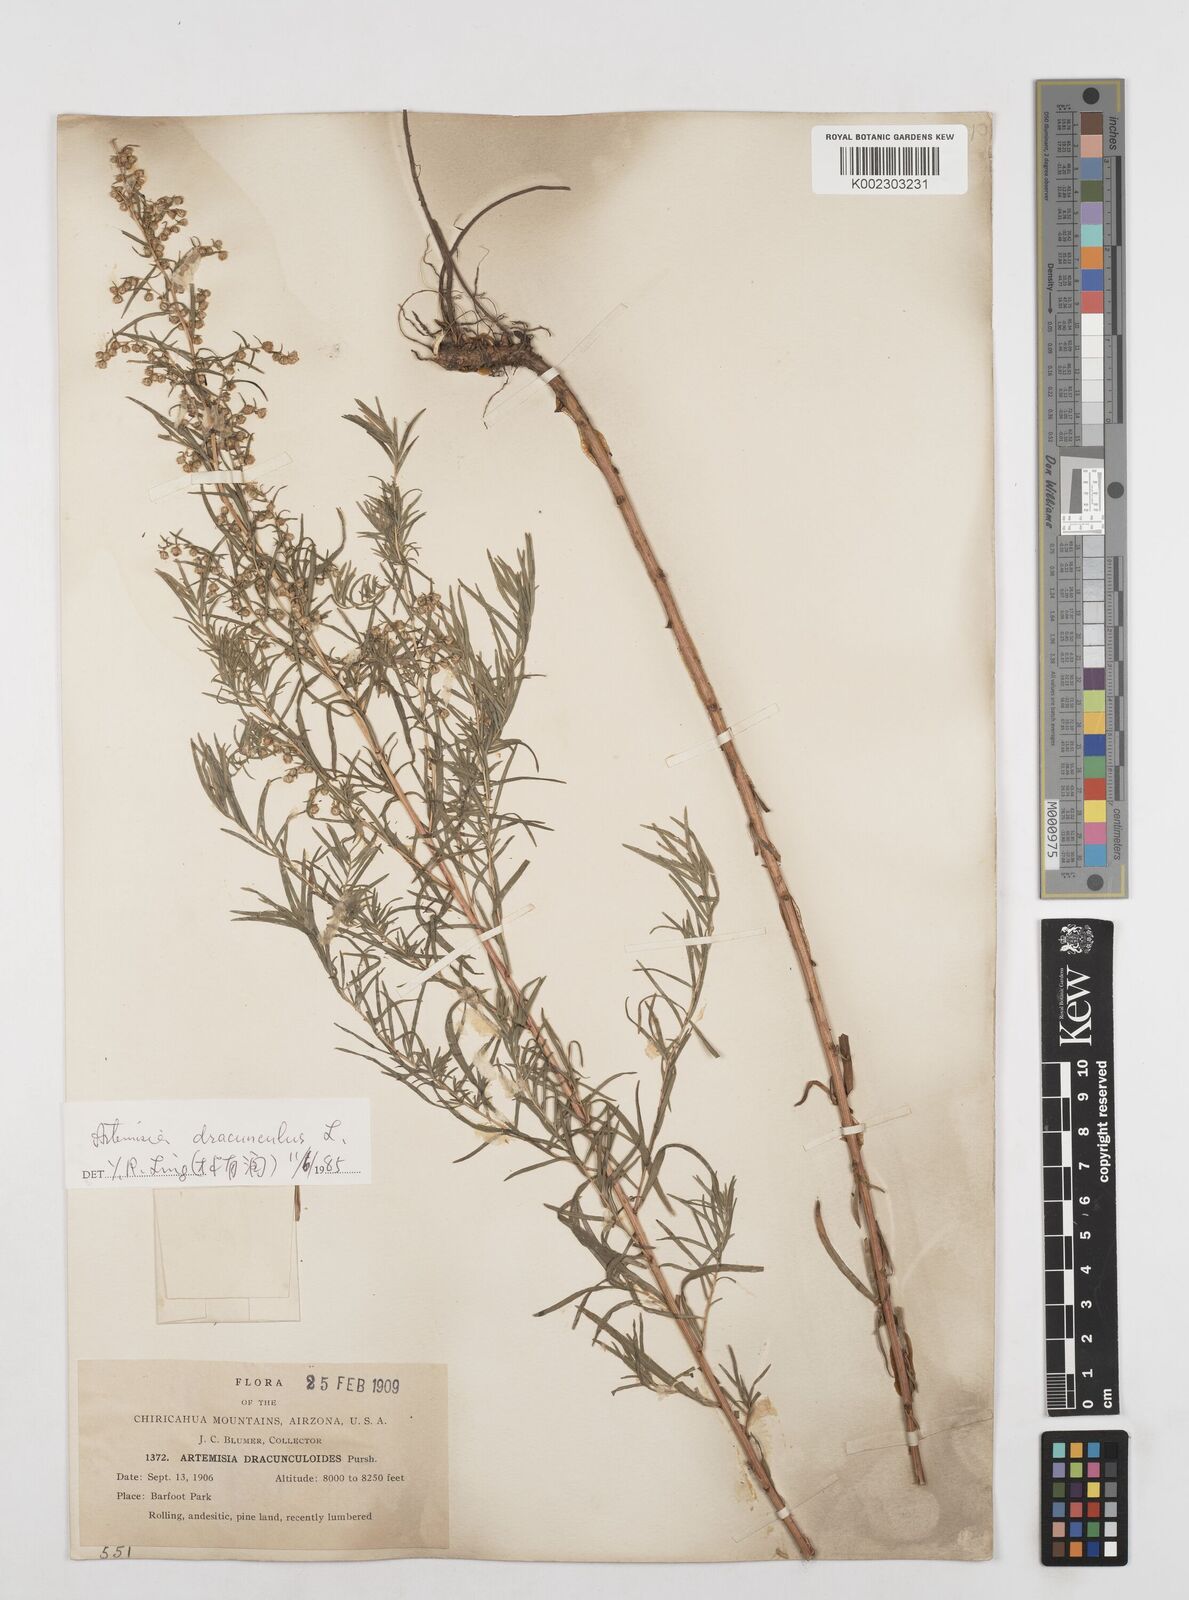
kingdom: Plantae
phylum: Tracheophyta
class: Magnoliopsida
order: Asterales
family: Asteraceae
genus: Artemisia
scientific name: Artemisia dracunculus
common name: Tarragon
